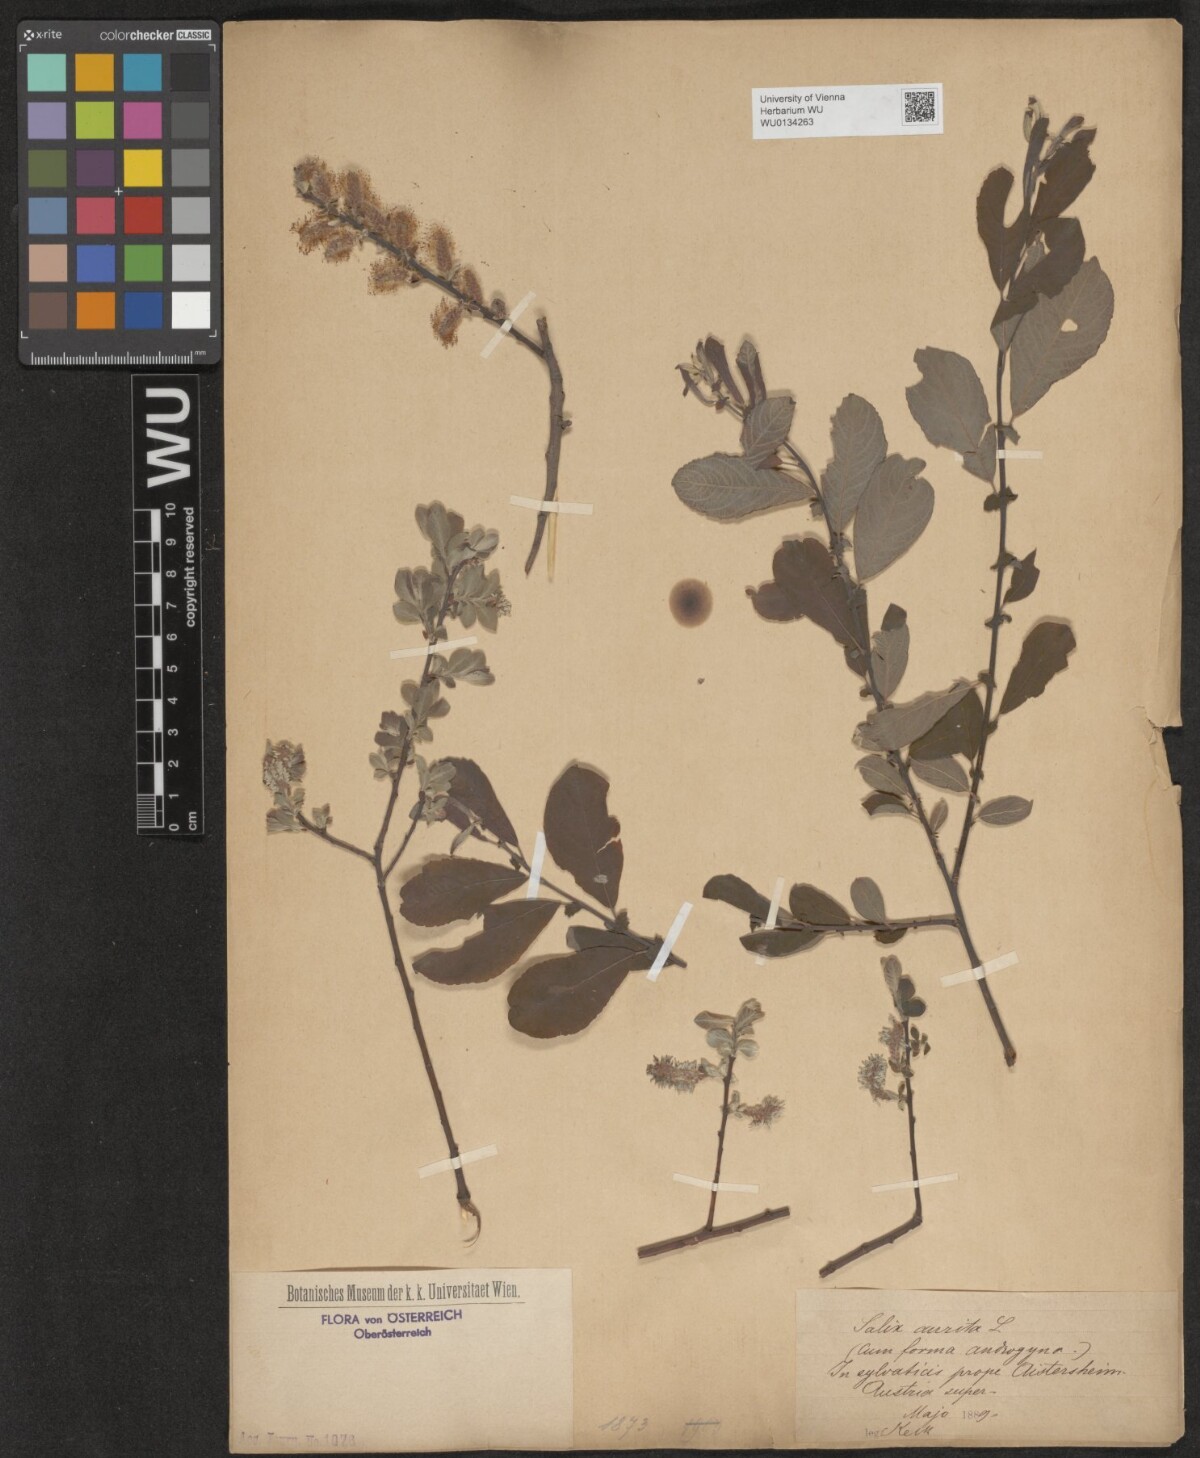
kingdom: Plantae
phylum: Tracheophyta
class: Magnoliopsida
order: Malpighiales
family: Salicaceae
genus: Salix
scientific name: Salix aurita
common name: Eared willow
